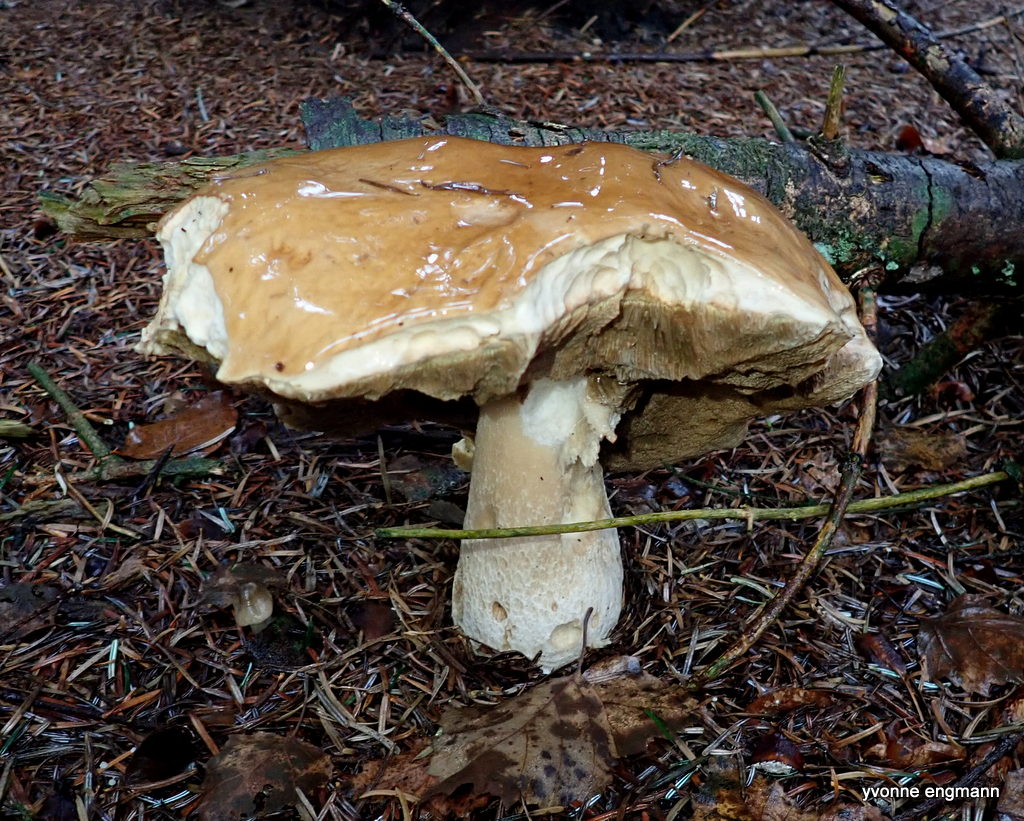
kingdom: Fungi
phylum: Basidiomycota
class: Agaricomycetes
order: Boletales
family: Boletaceae
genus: Boletus
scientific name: Boletus edulis
